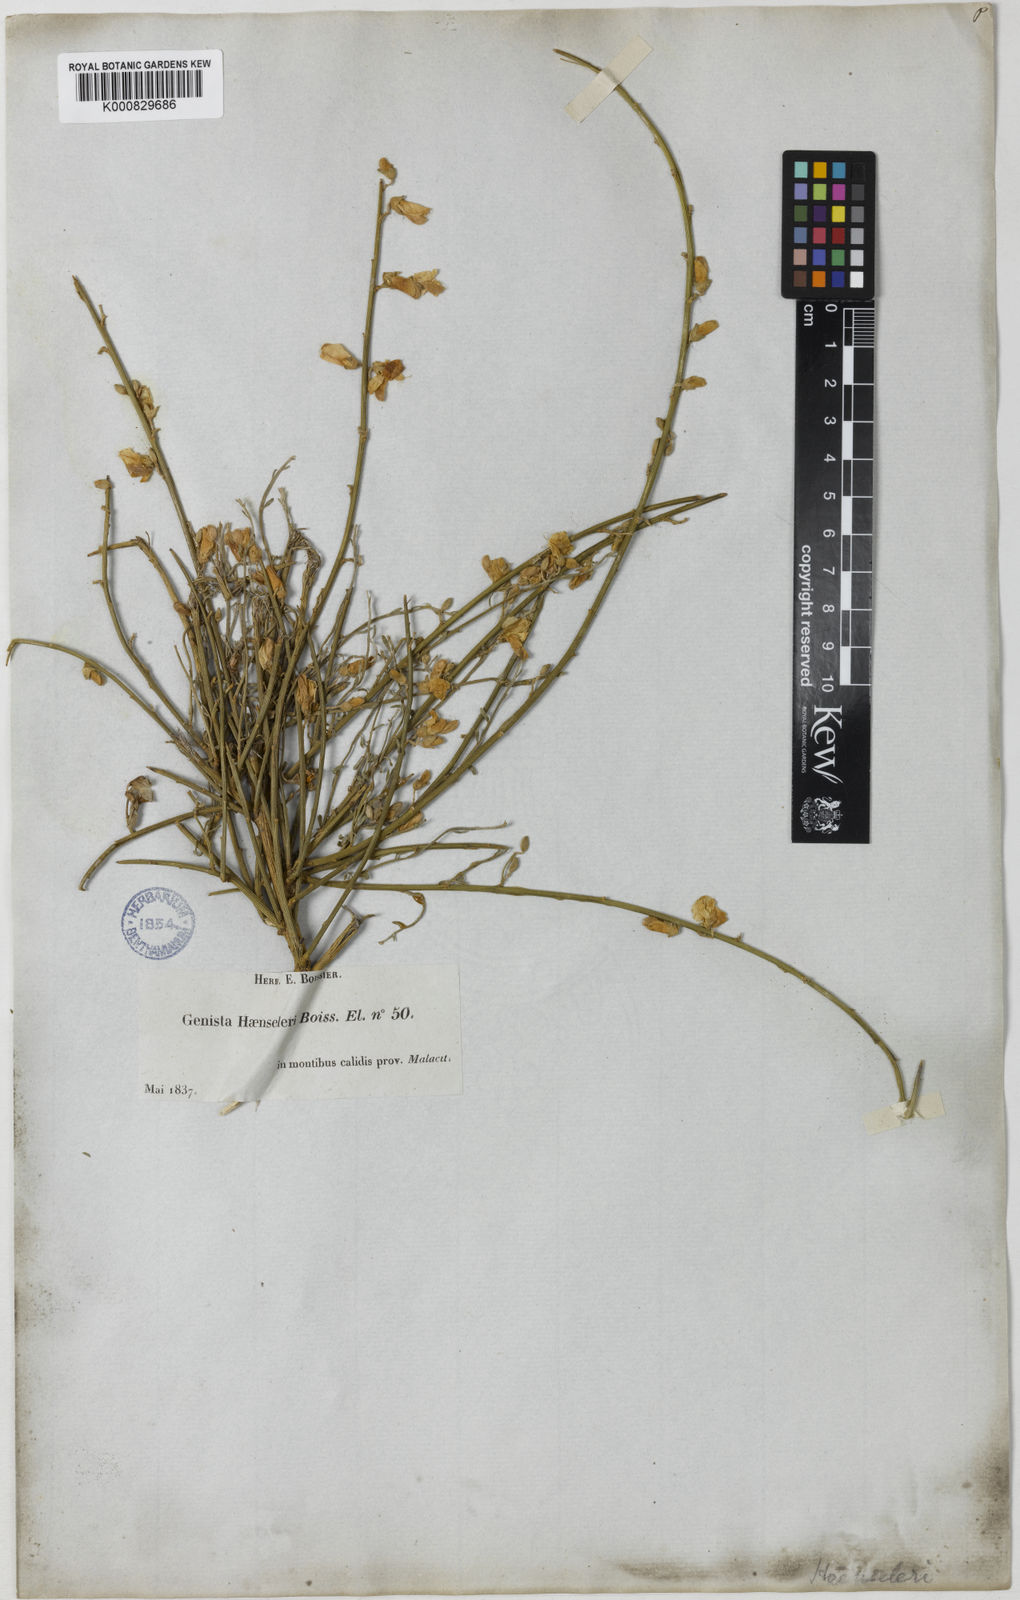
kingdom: Plantae
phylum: Tracheophyta
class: Magnoliopsida
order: Fabales
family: Fabaceae
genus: Genista
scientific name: Genista haensleri
